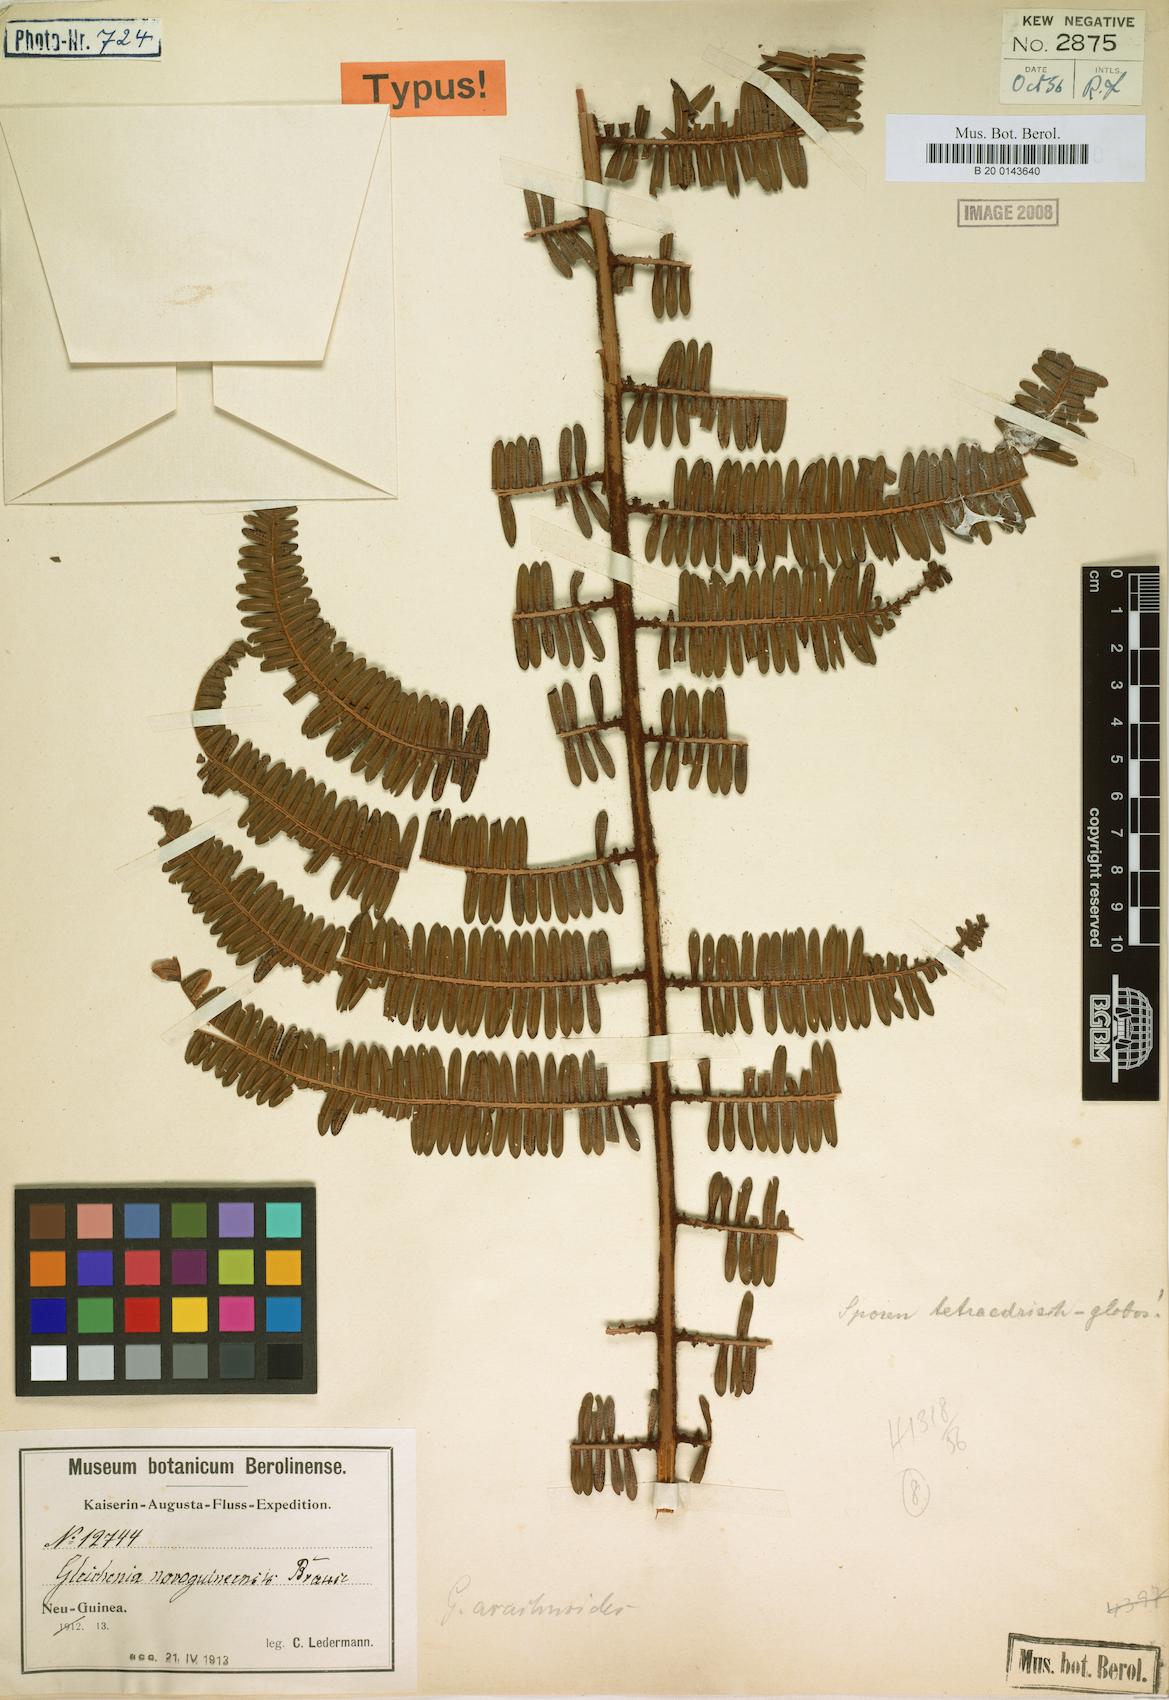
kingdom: Plantae
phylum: Tracheophyta
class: Polypodiopsida
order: Gleicheniales
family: Gleicheniaceae
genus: Diplopterygium
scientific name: Diplopterygium sordidum
